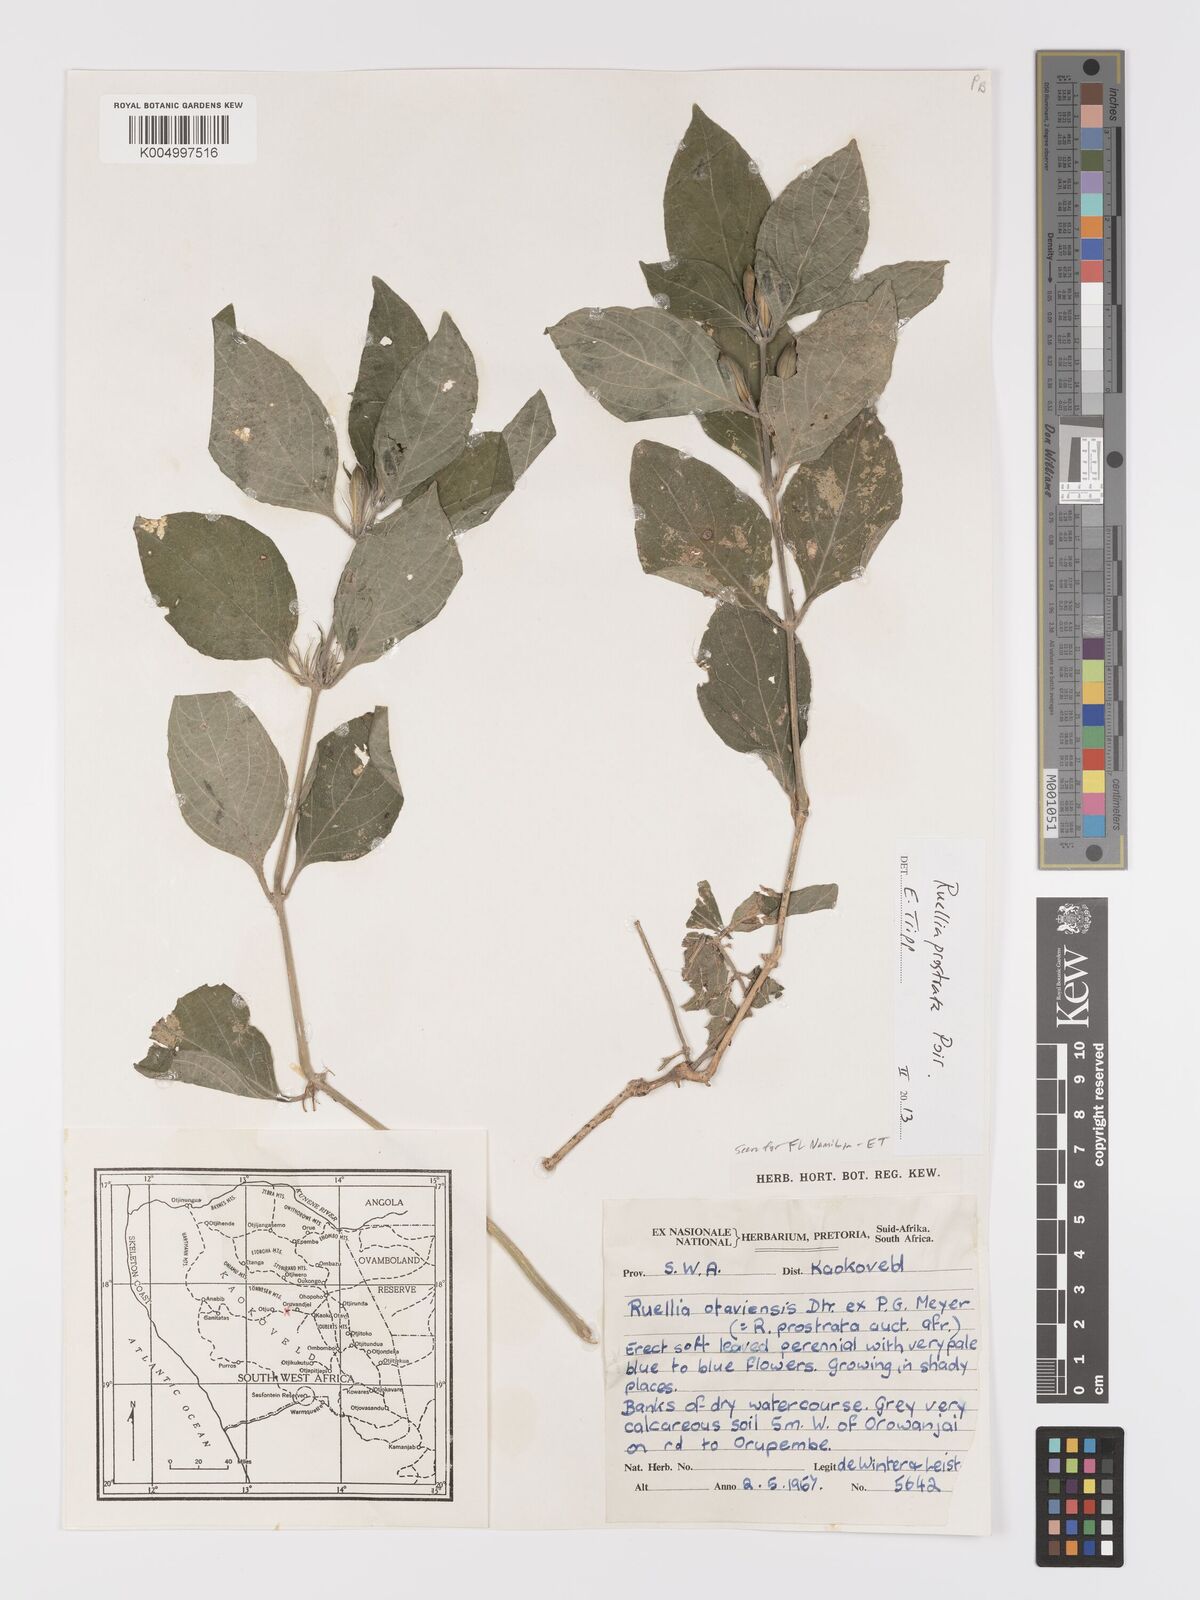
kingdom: Plantae
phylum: Tracheophyta
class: Magnoliopsida
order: Lamiales
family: Acanthaceae
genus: Ruellia
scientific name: Ruellia
